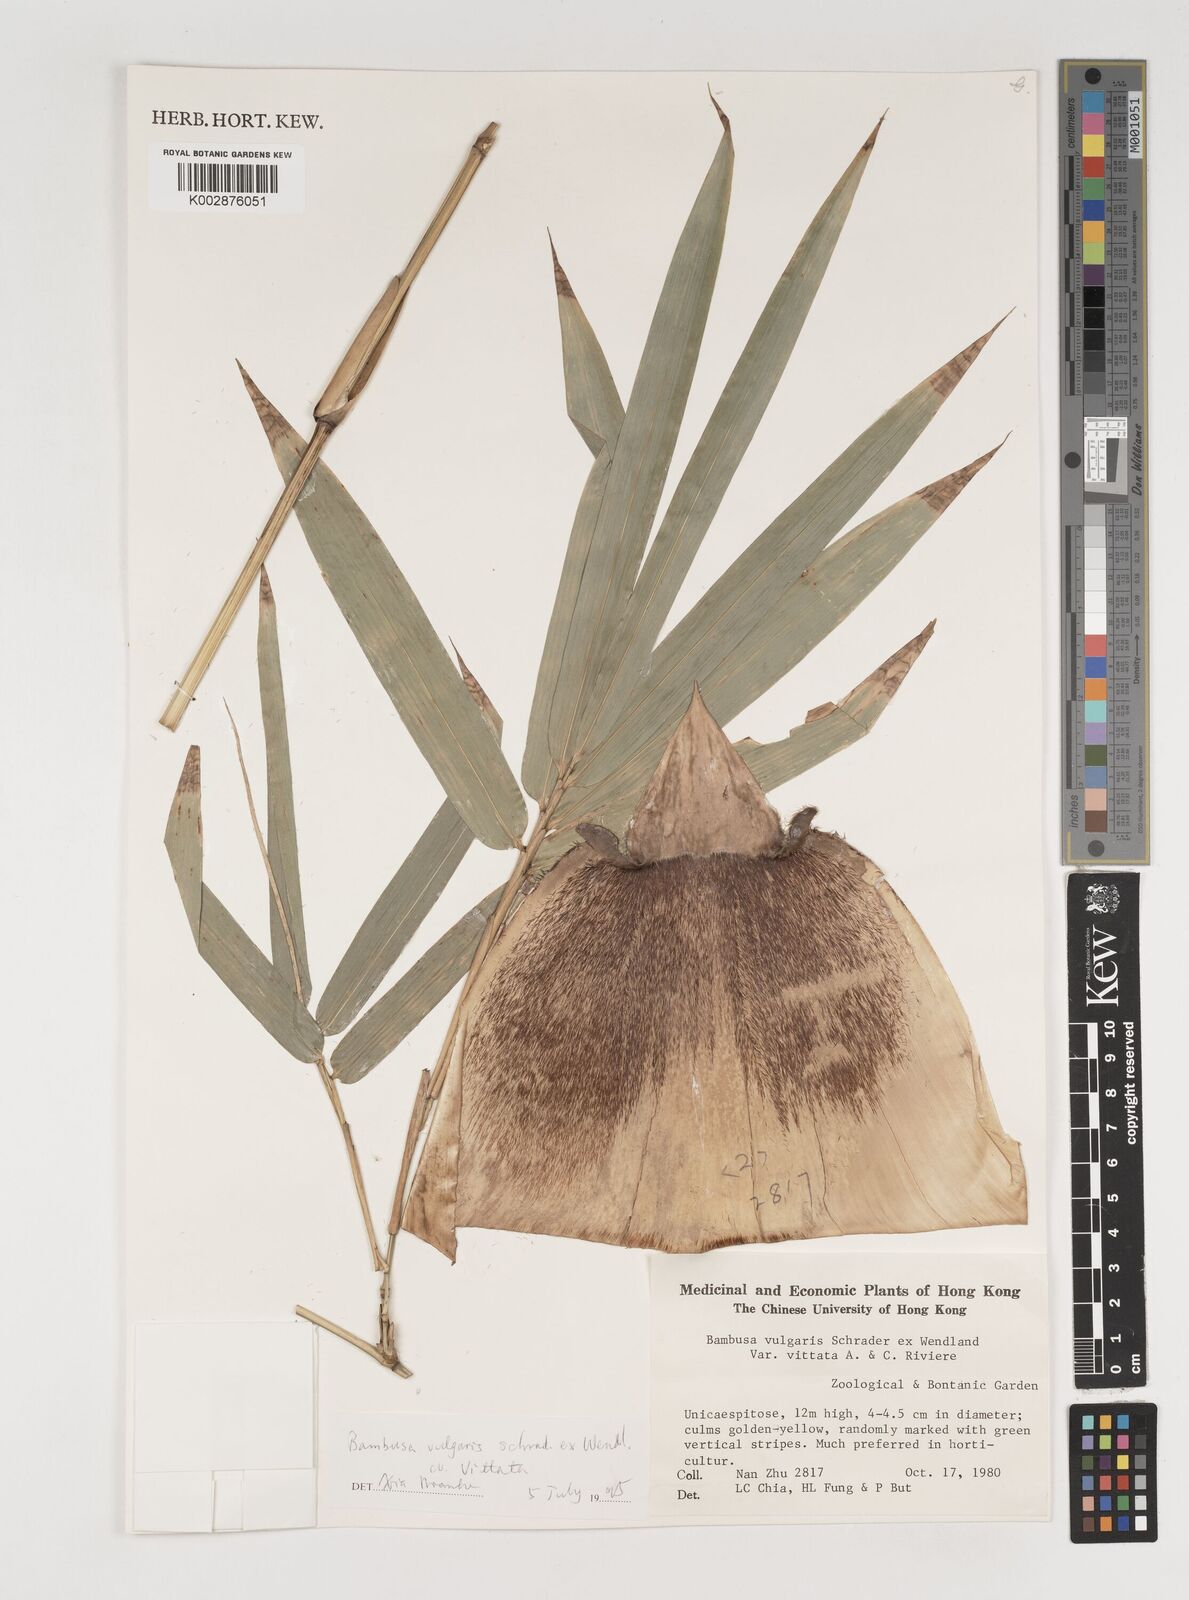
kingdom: Plantae
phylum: Tracheophyta
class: Liliopsida
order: Poales
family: Poaceae
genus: Bambusa
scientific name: Bambusa vulgaris
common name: Common bamboo
